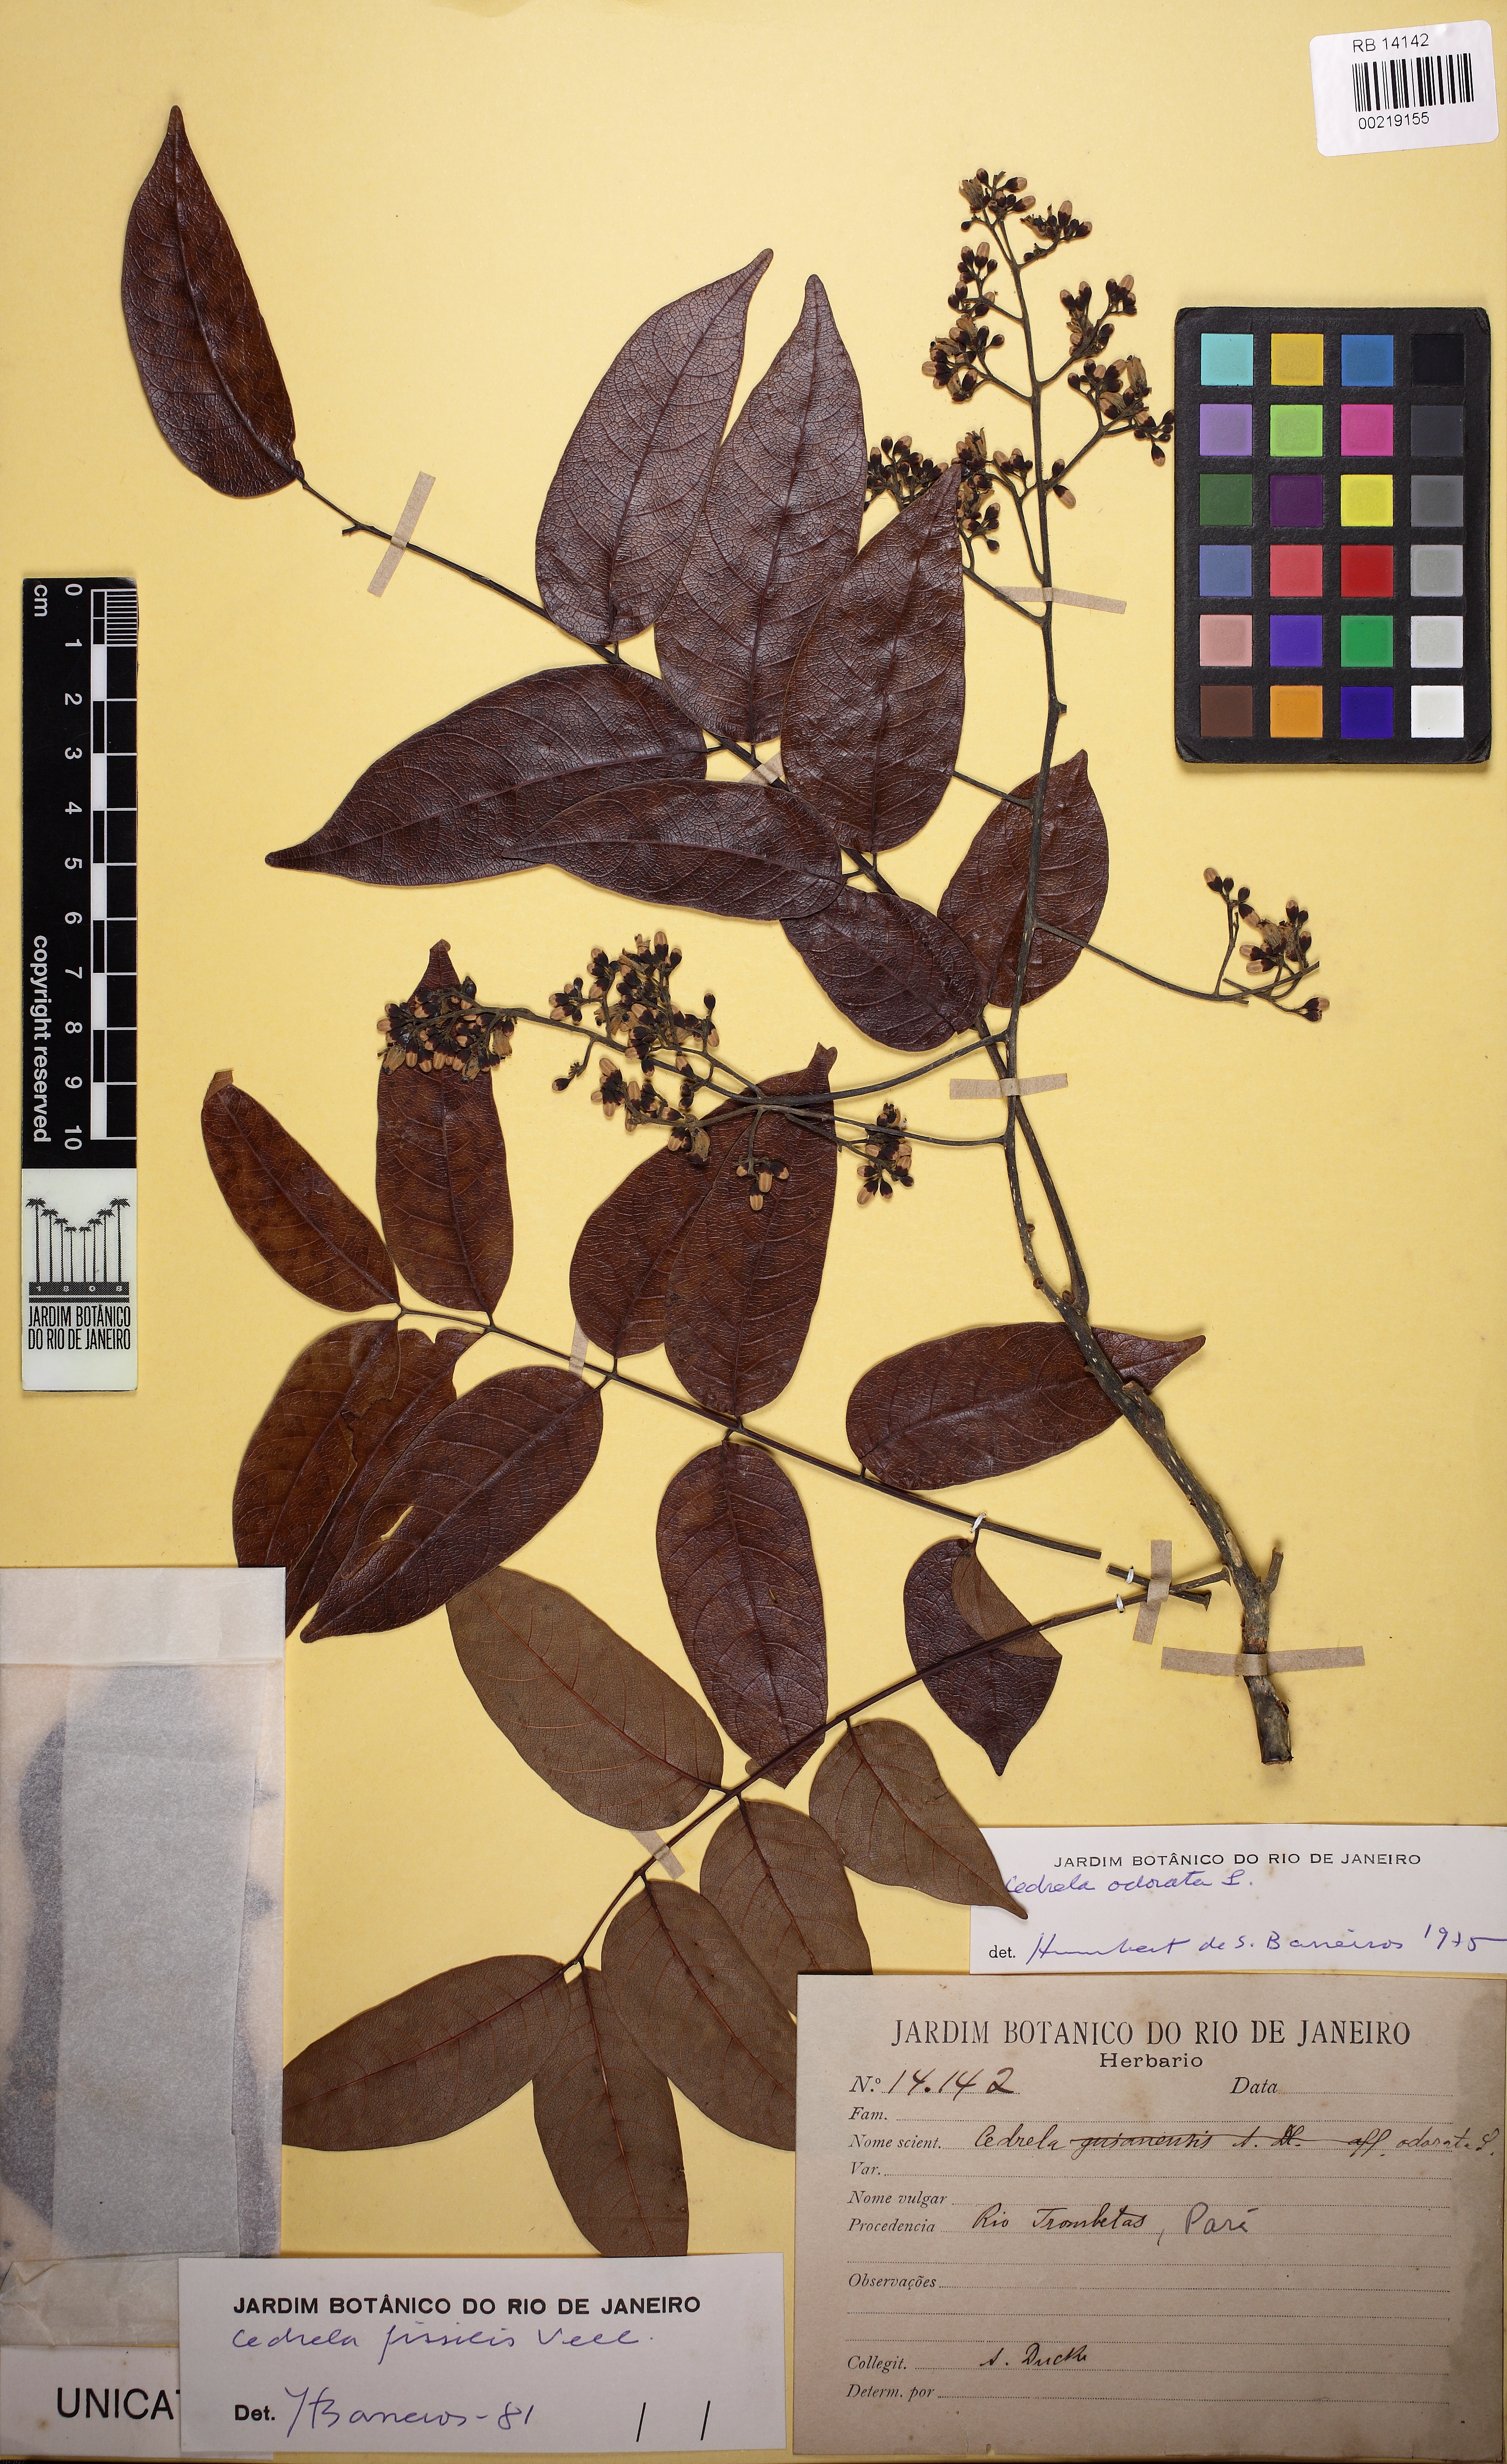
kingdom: Plantae
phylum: Tracheophyta
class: Magnoliopsida
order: Sapindales
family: Meliaceae
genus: Cedrela
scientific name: Cedrela fissilis
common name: Argentine cedar
